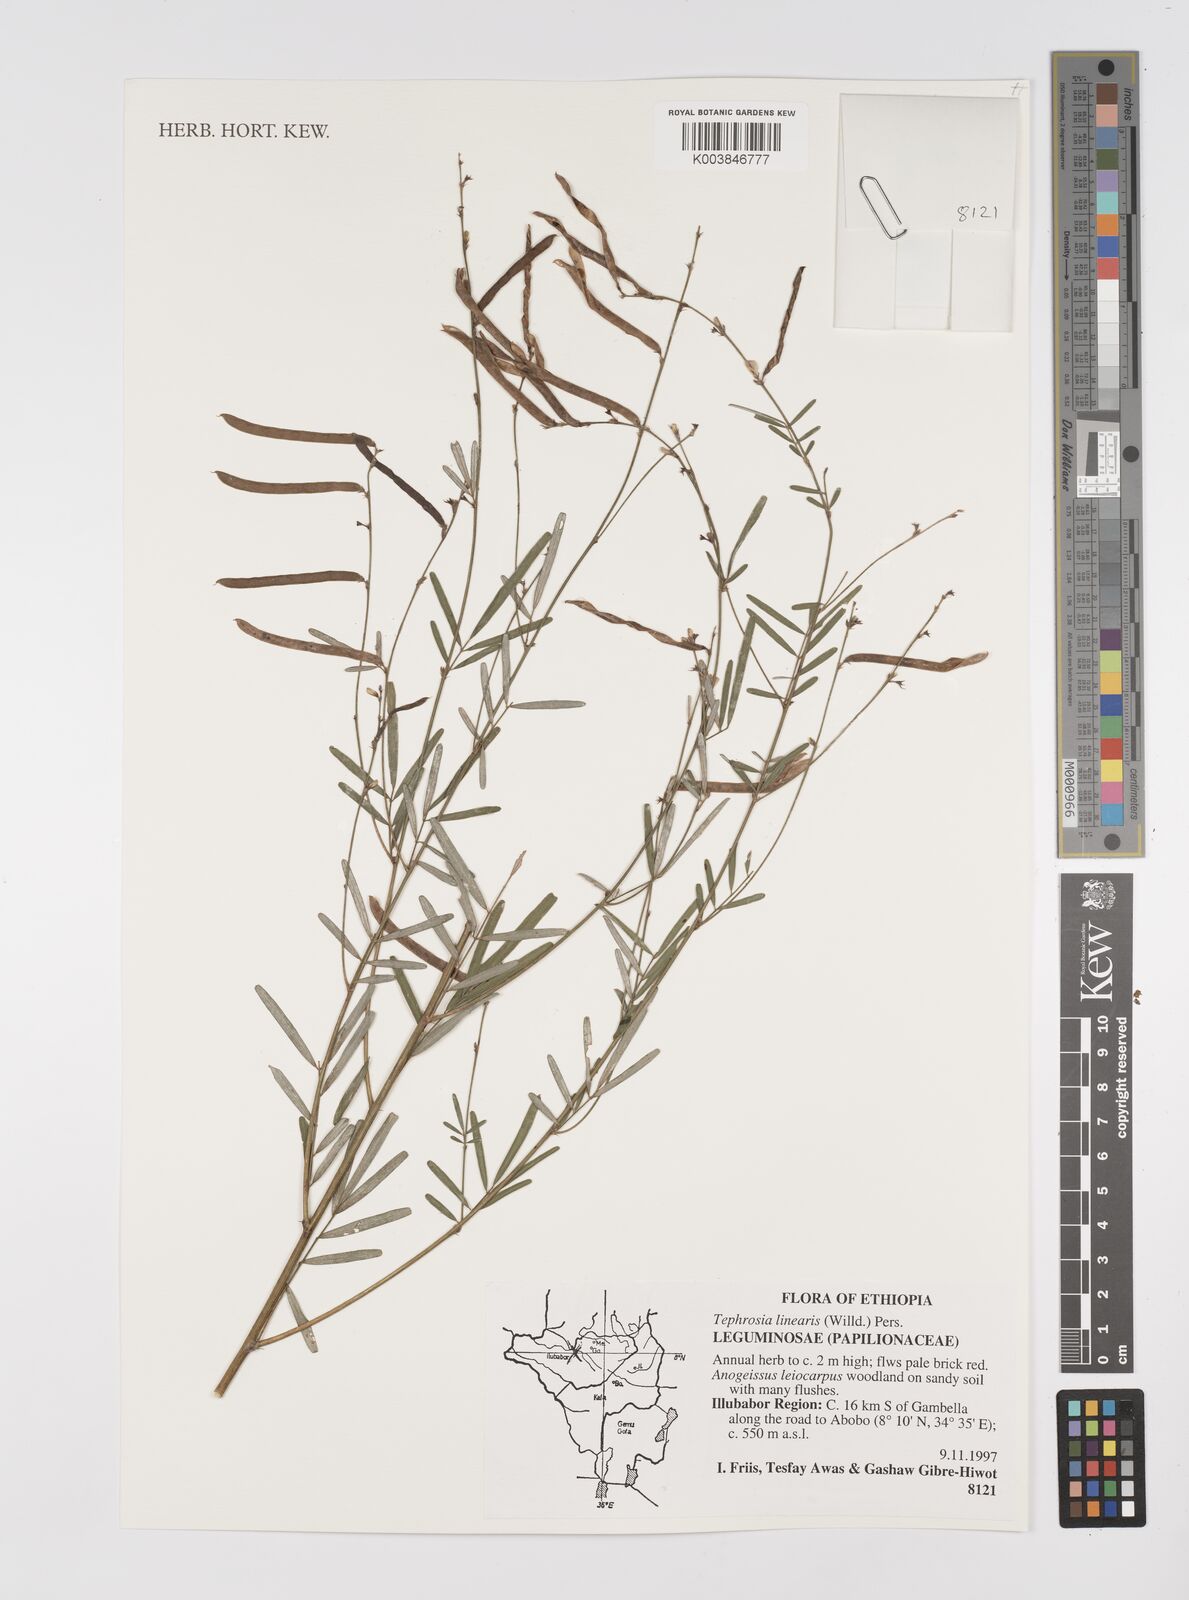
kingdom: Plantae
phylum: Tracheophyta
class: Magnoliopsida
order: Fabales
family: Fabaceae
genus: Tephrosia
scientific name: Tephrosia linearis
